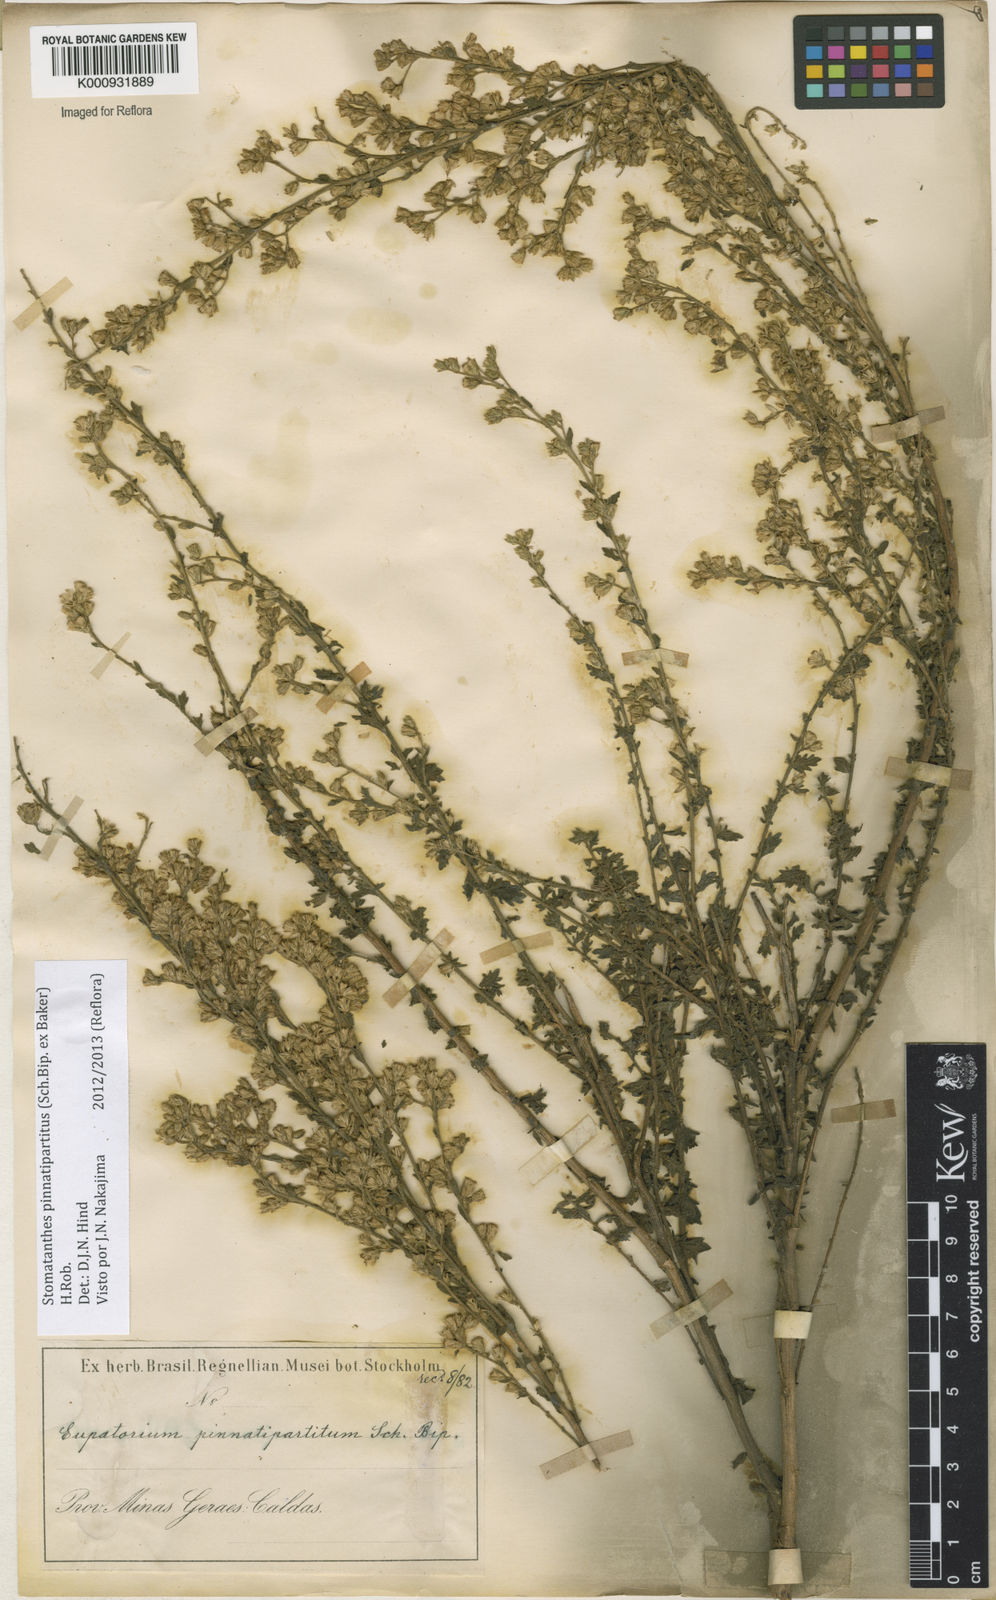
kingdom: Plantae
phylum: Tracheophyta
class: Magnoliopsida
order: Asterales
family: Asteraceae
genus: Stomatanthes
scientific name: Stomatanthes pinnatipartitus
